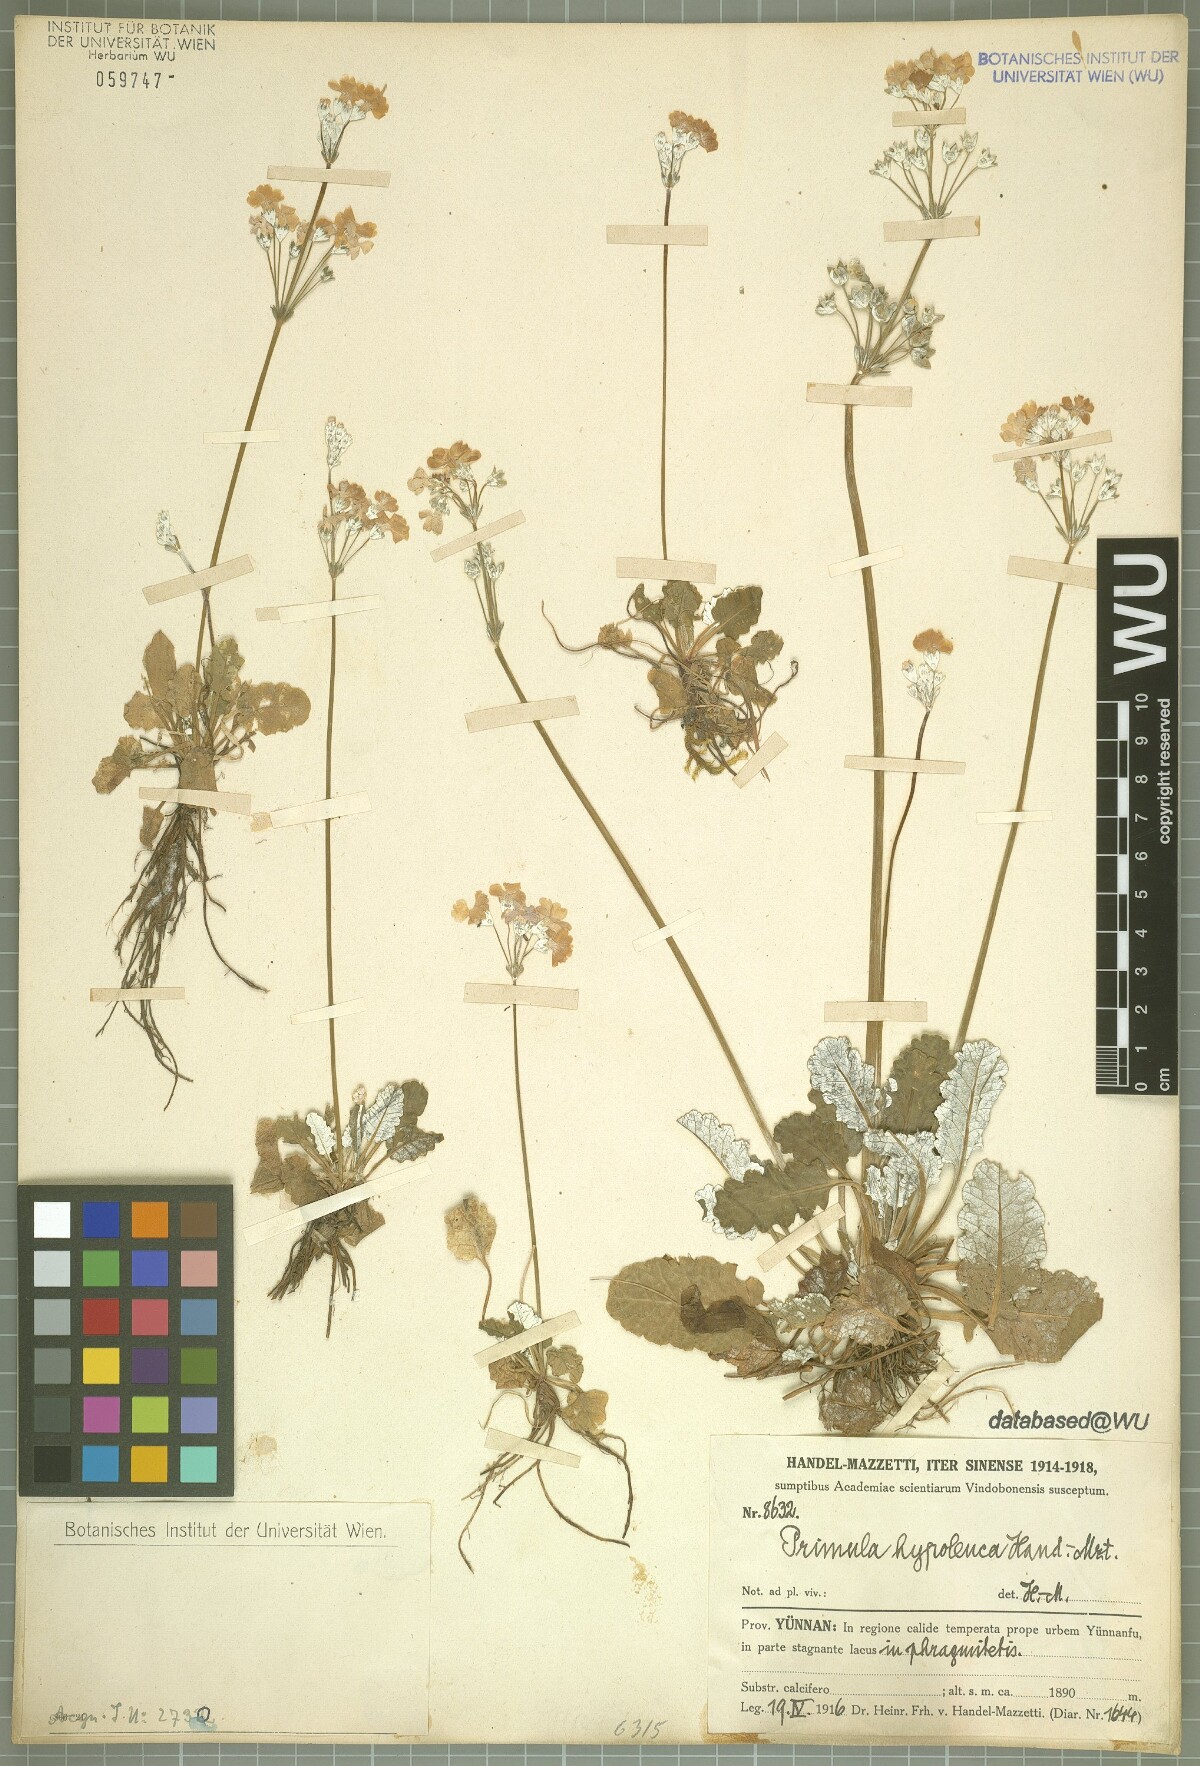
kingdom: Plantae
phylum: Tracheophyta
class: Magnoliopsida
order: Ericales
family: Primulaceae
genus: Primula
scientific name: Primula hypoleuca
